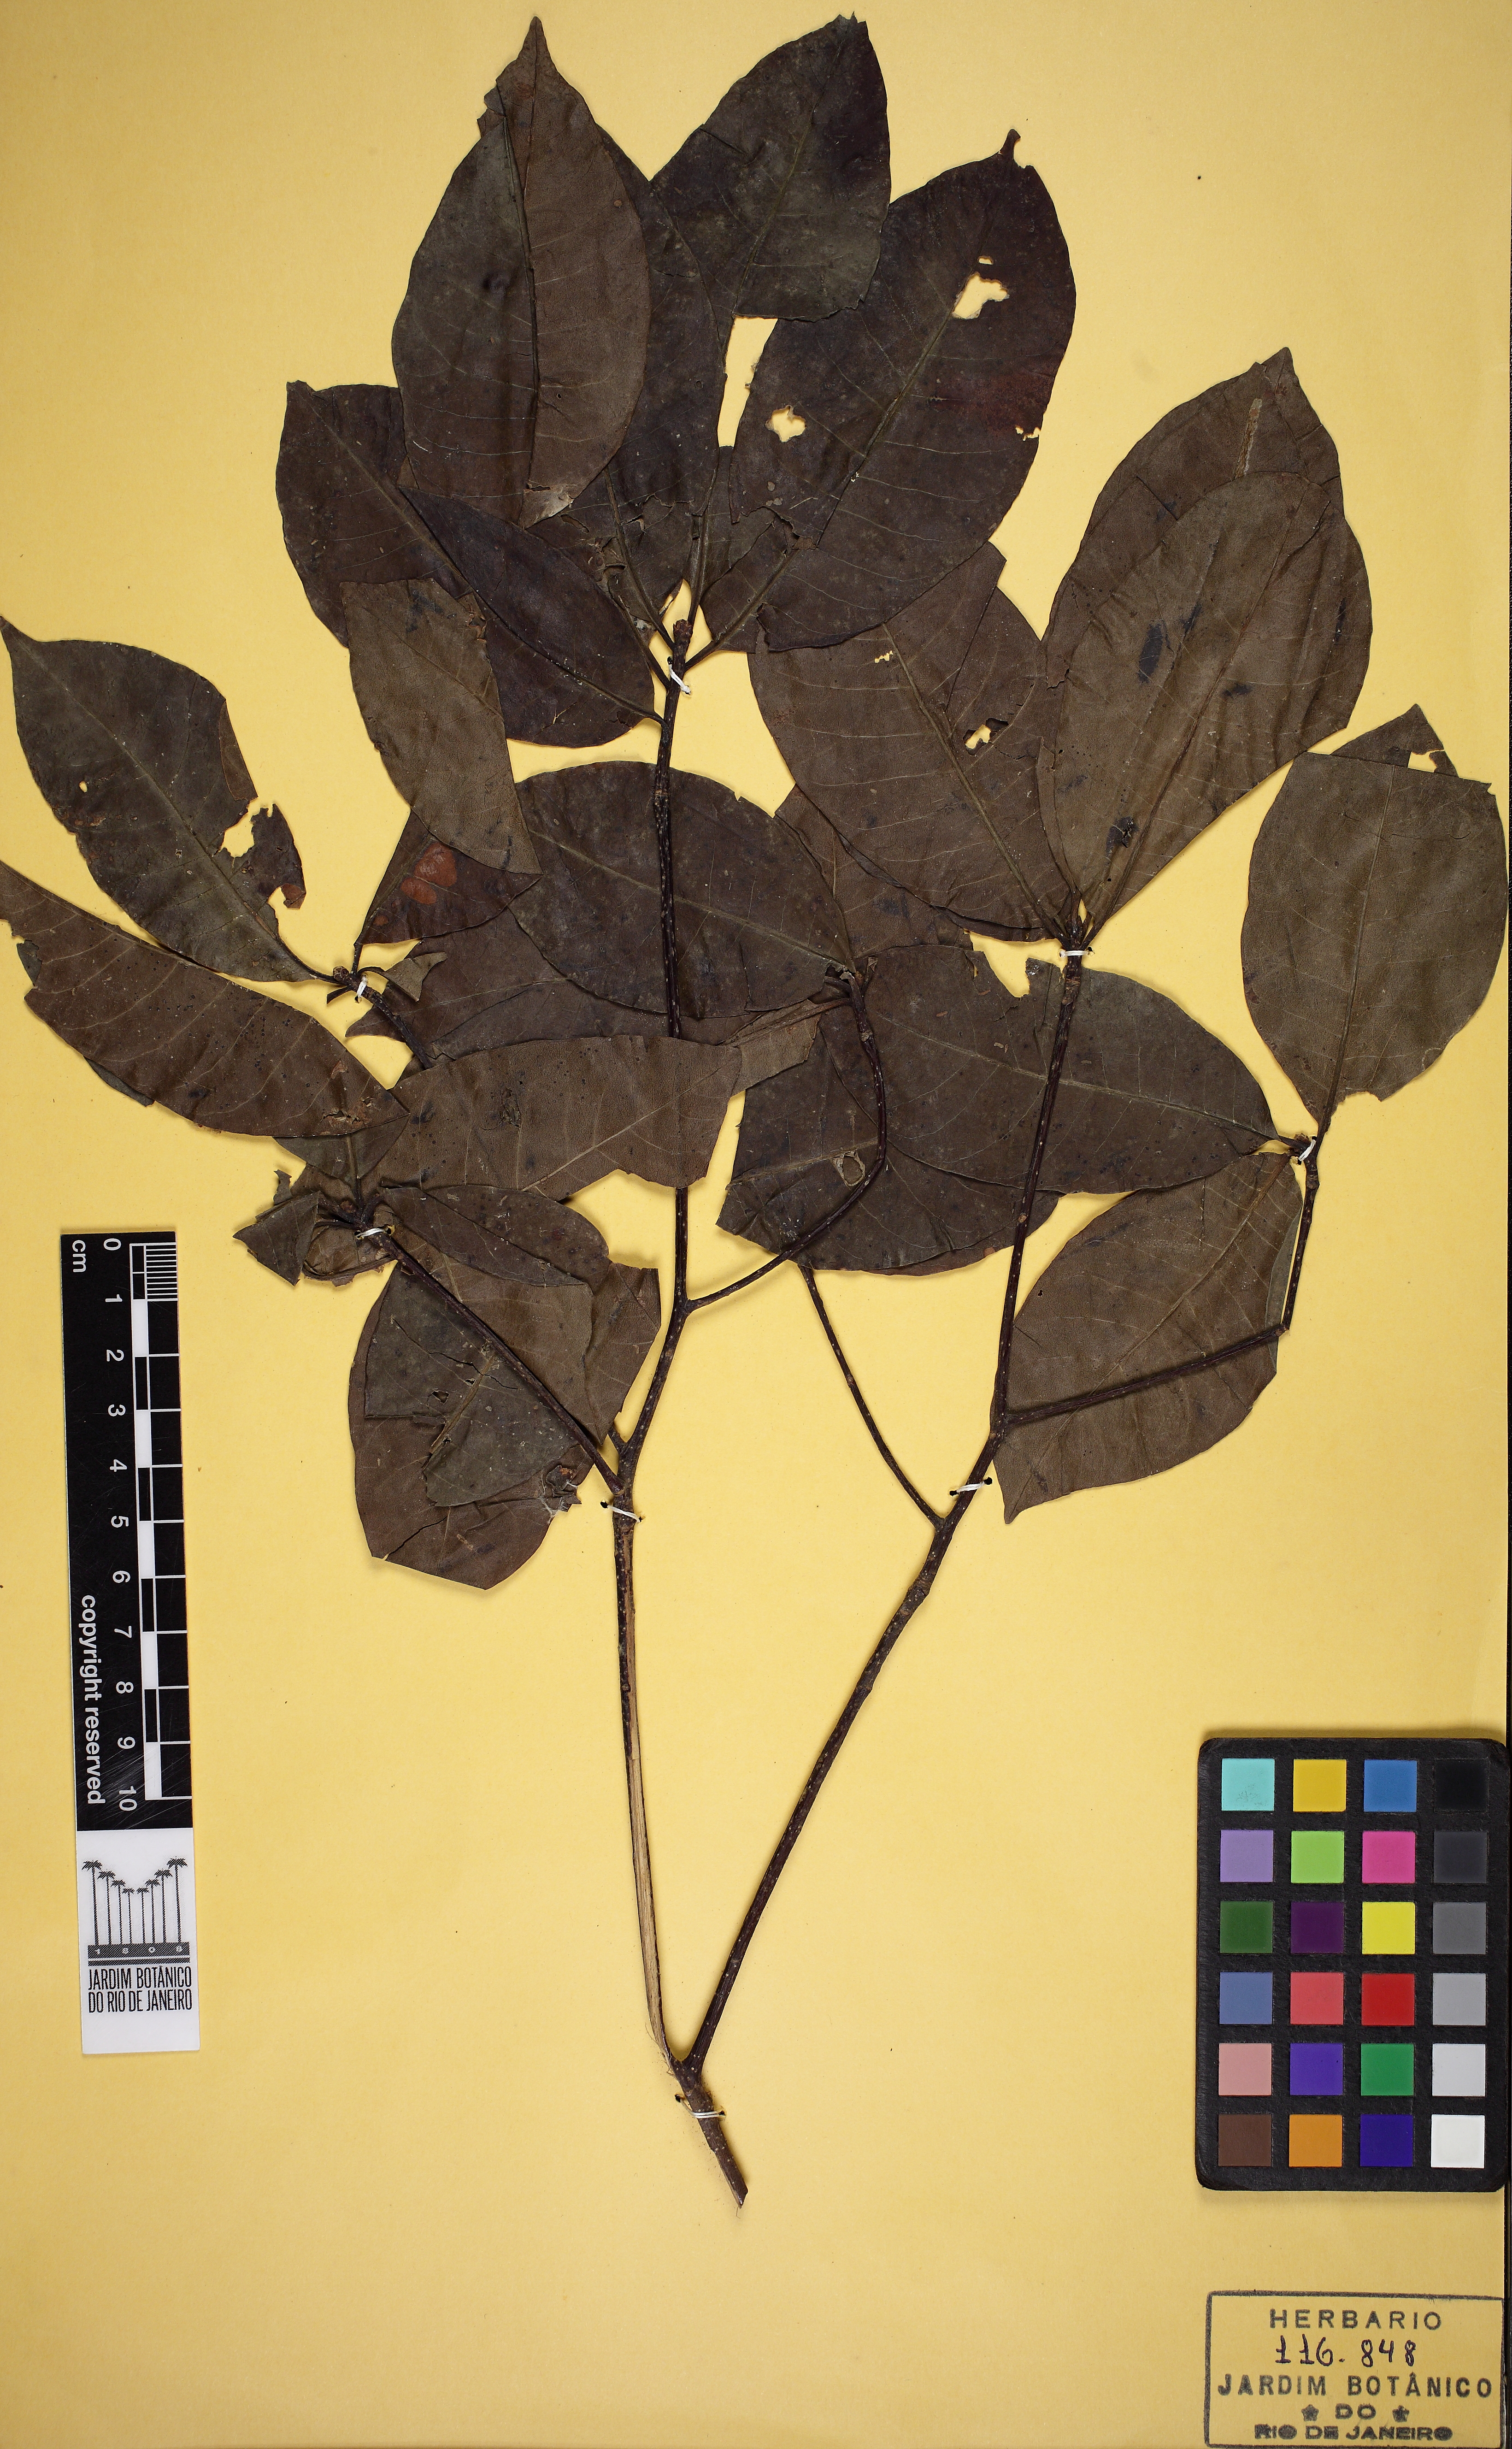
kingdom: Plantae
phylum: Tracheophyta
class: Magnoliopsida
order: Gentianales
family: Apocynaceae
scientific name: Apocynaceae
